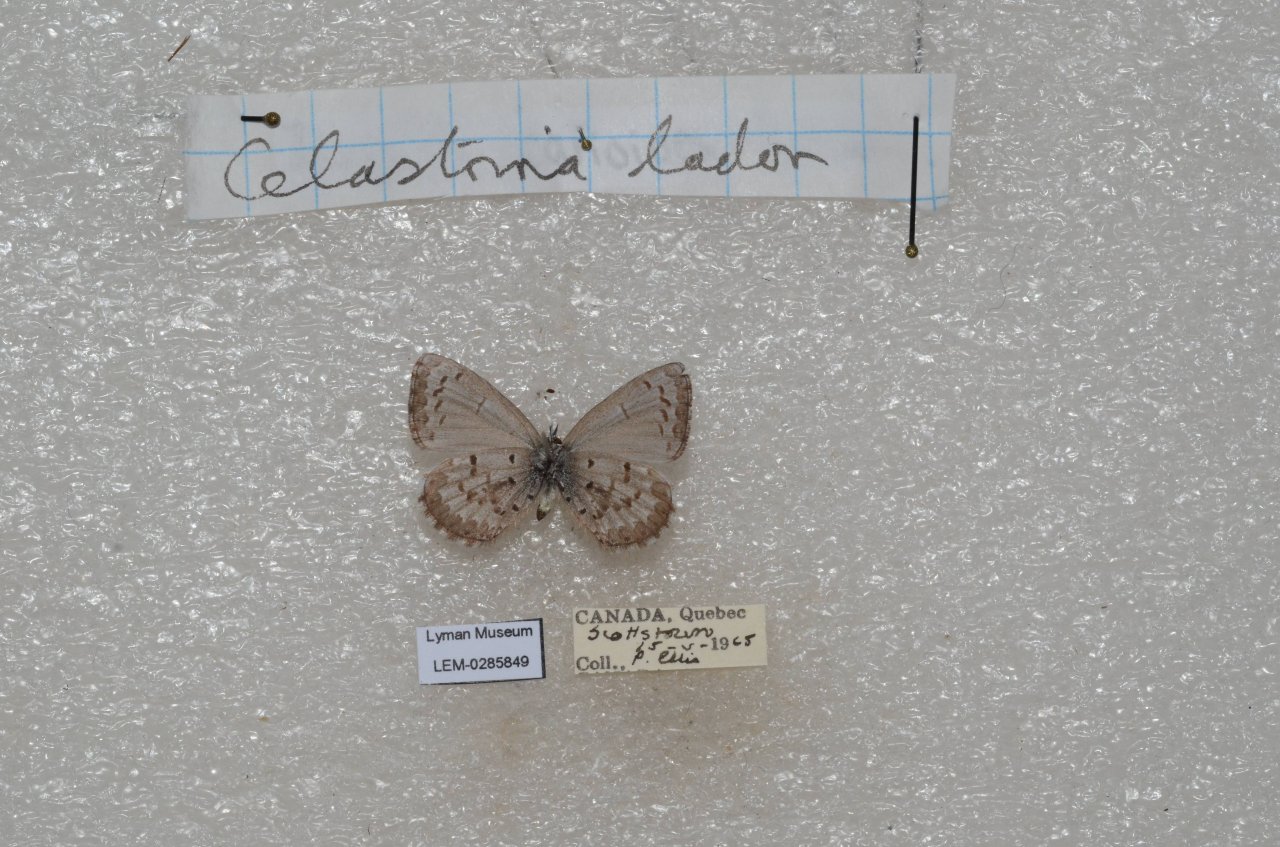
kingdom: Animalia
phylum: Arthropoda
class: Insecta
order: Lepidoptera
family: Lycaenidae
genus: Celastrina
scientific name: Celastrina lucia
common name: Northern Spring Azure
